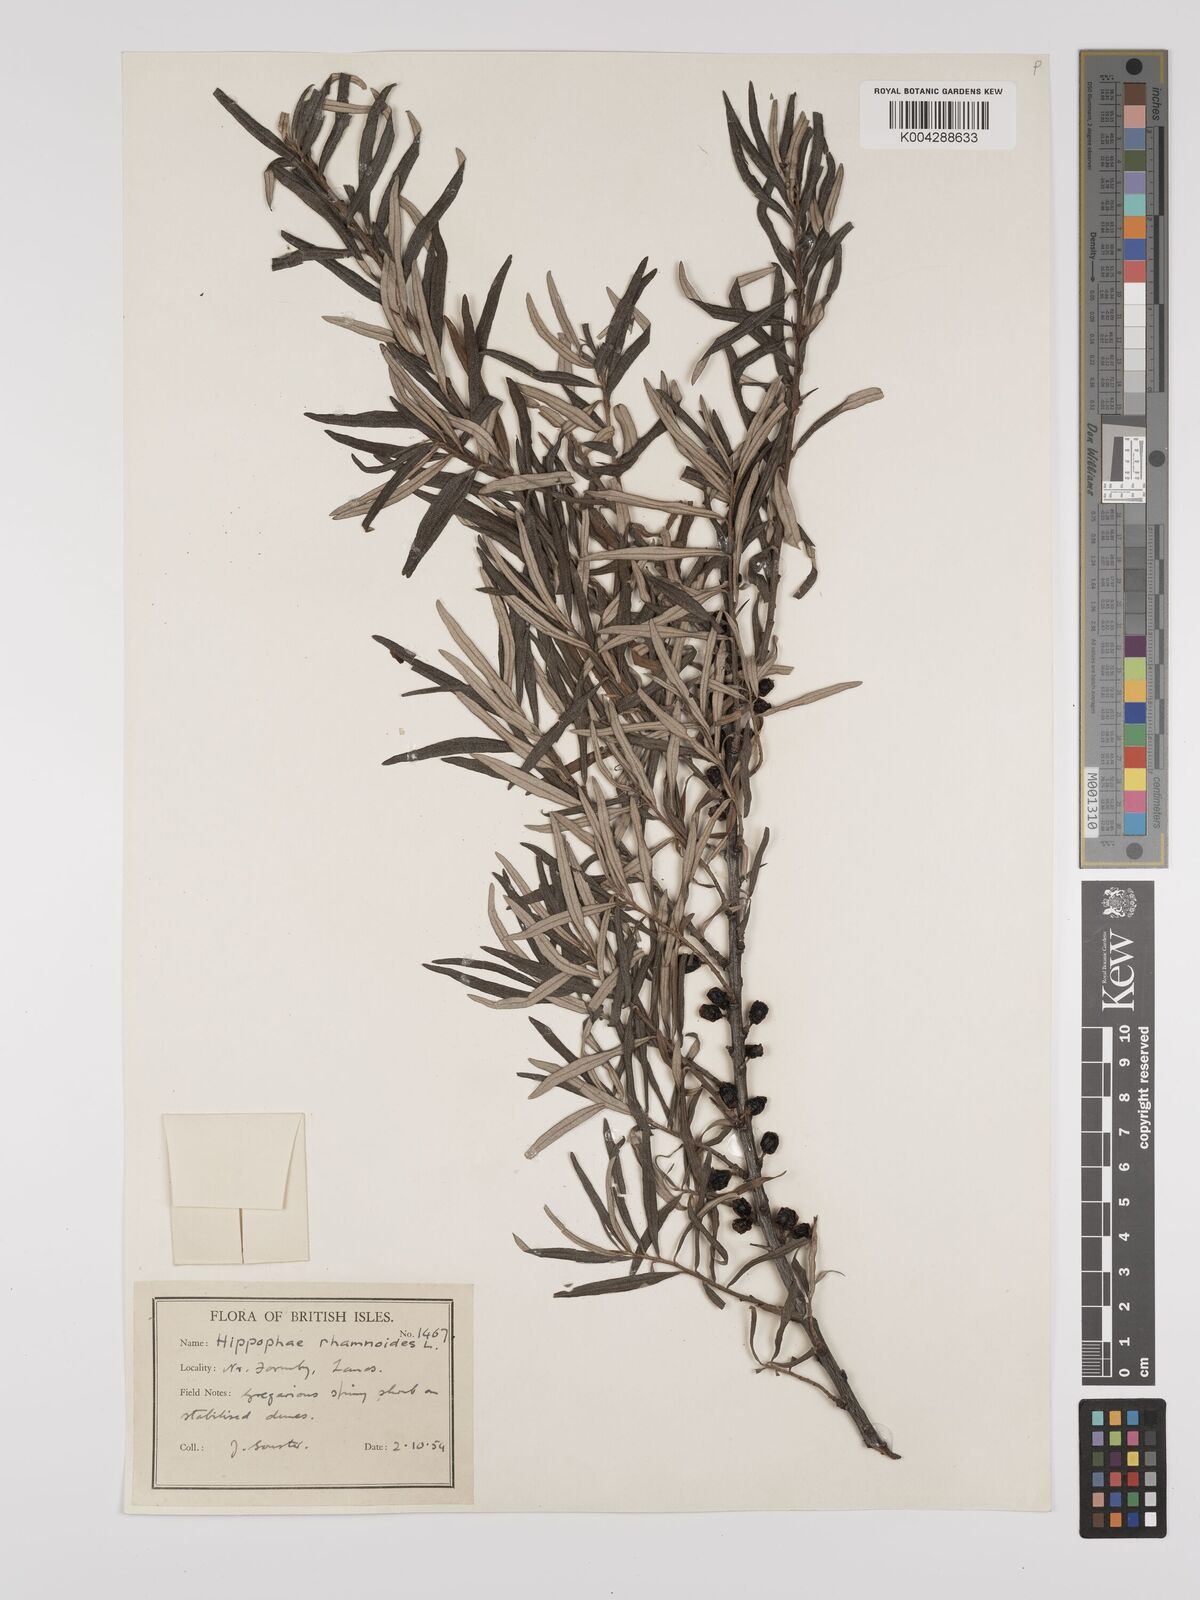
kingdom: Plantae
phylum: Tracheophyta
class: Magnoliopsida
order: Rosales
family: Elaeagnaceae
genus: Hippophae
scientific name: Hippophae rhamnoides
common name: Sea-buckthorn
